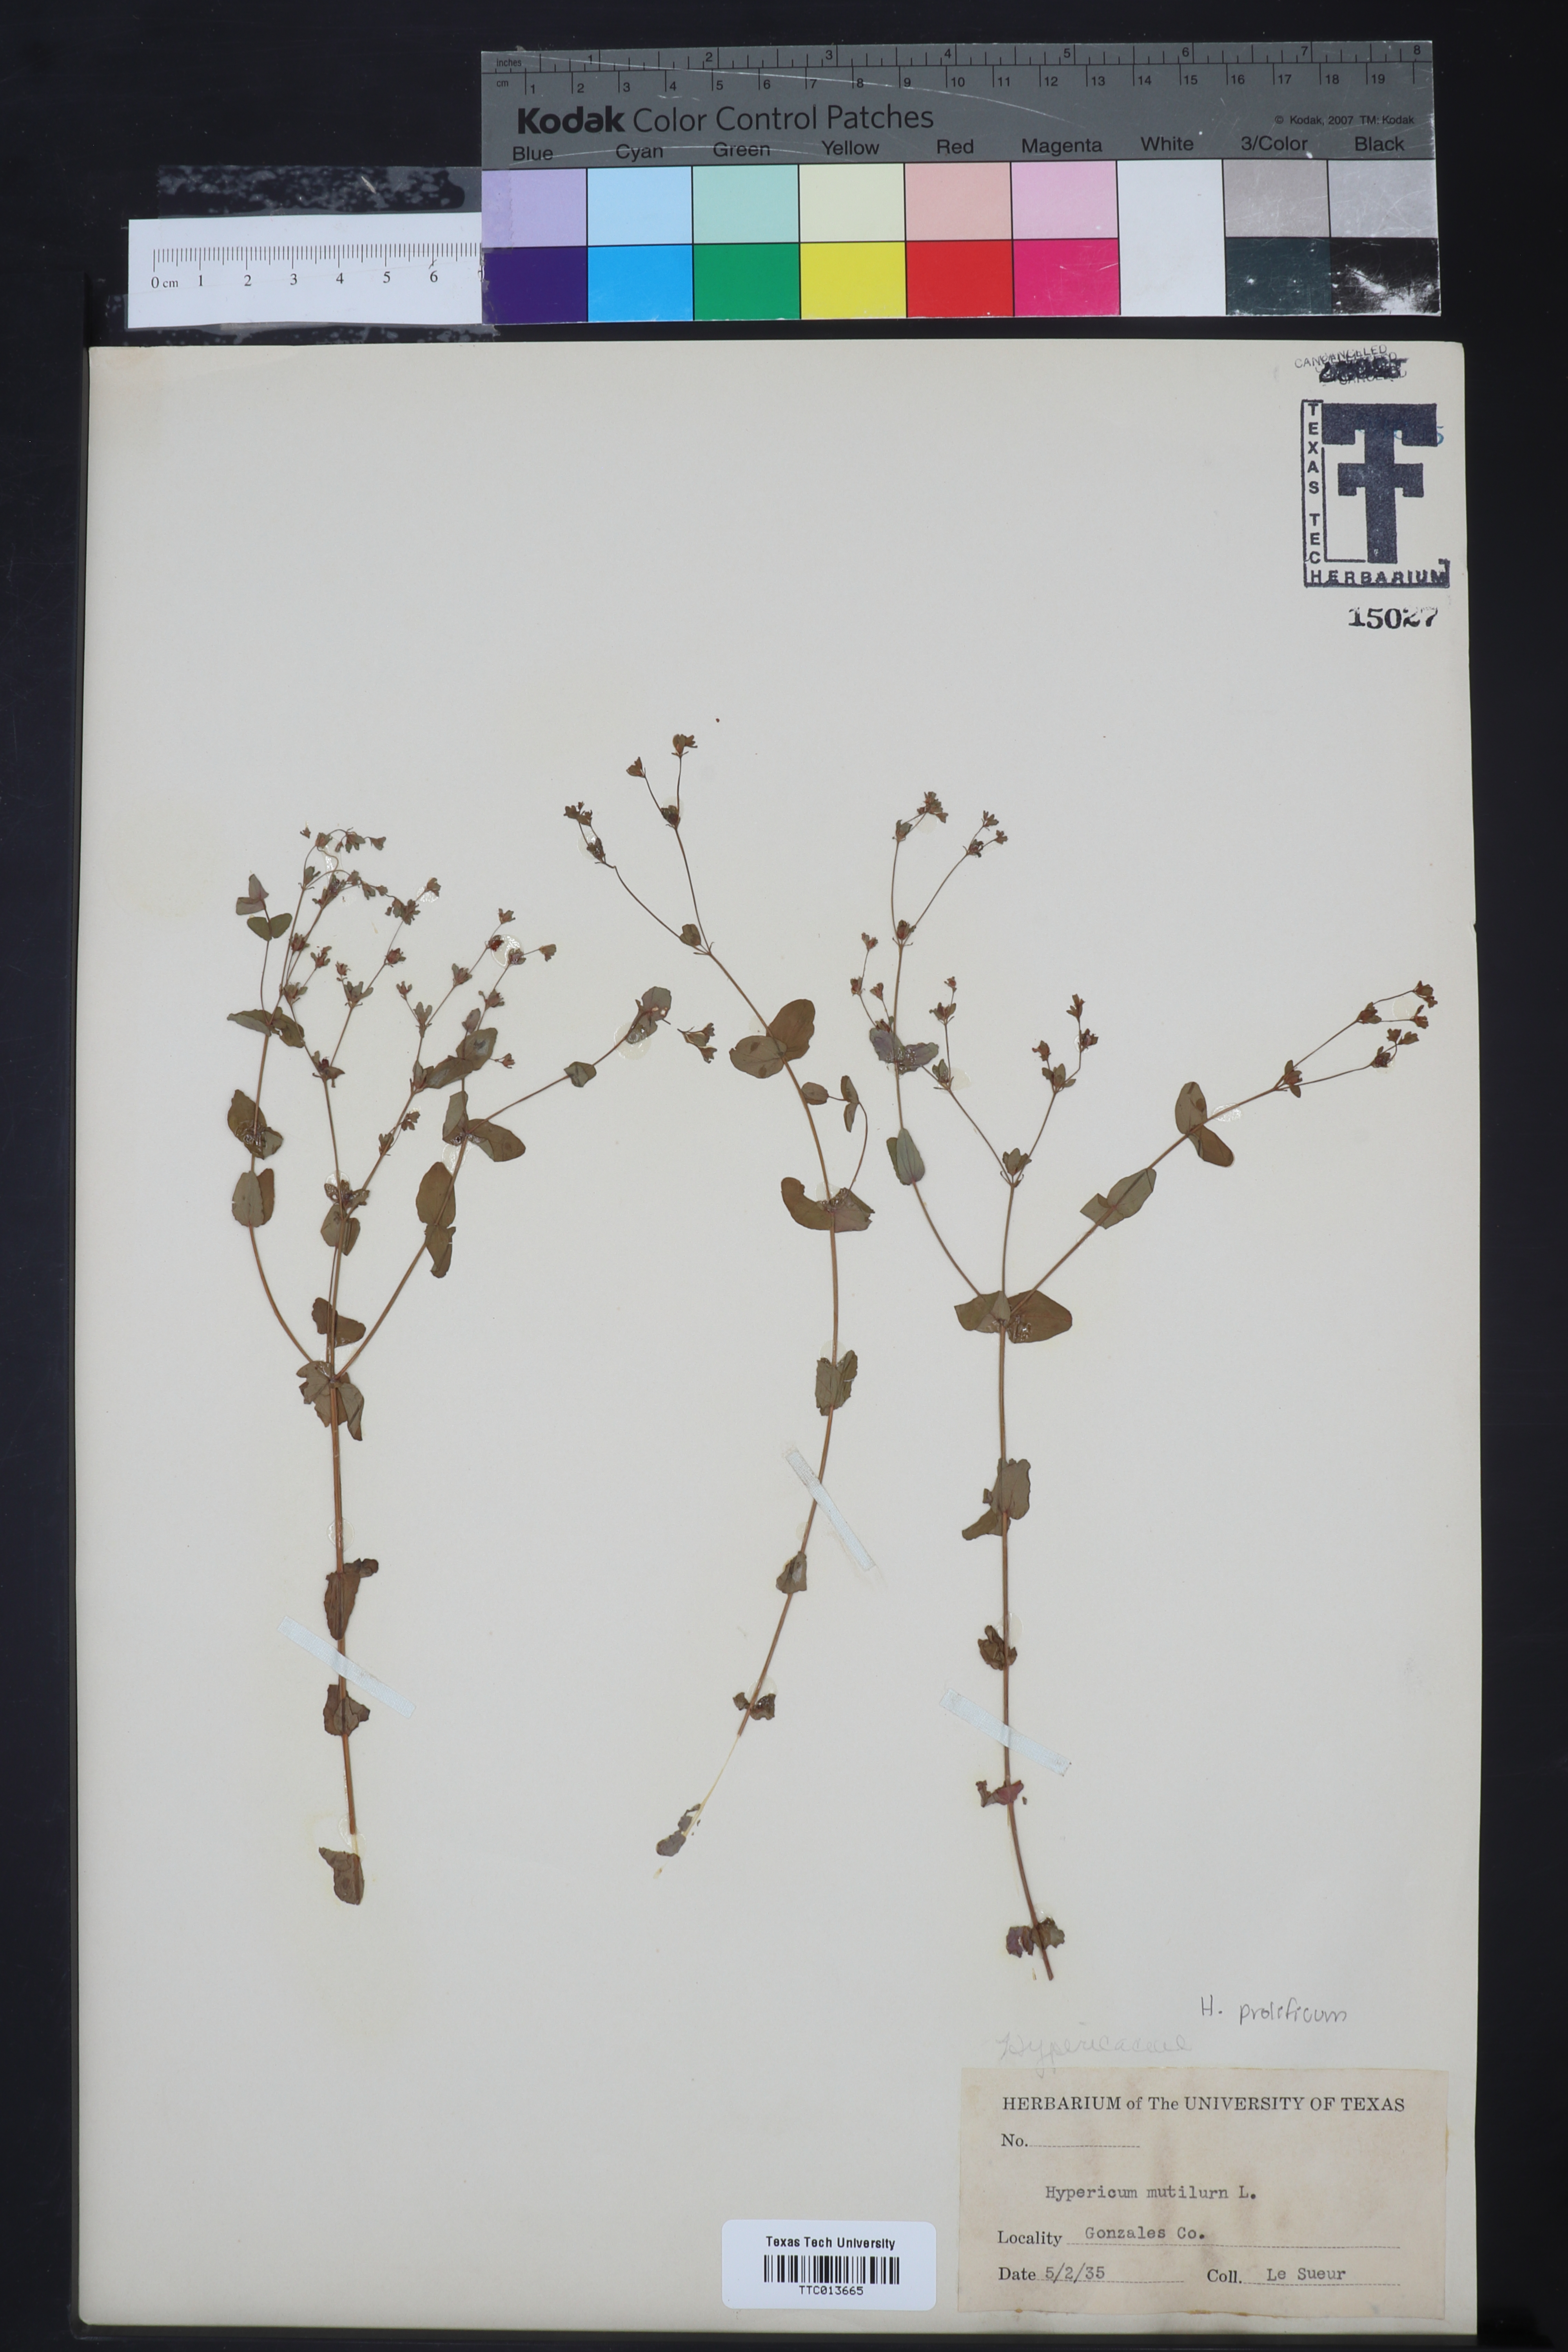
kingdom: Plantae
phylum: Tracheophyta
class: Magnoliopsida
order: Malpighiales
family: Hypericaceae
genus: Hypericum
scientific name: Hypericum
